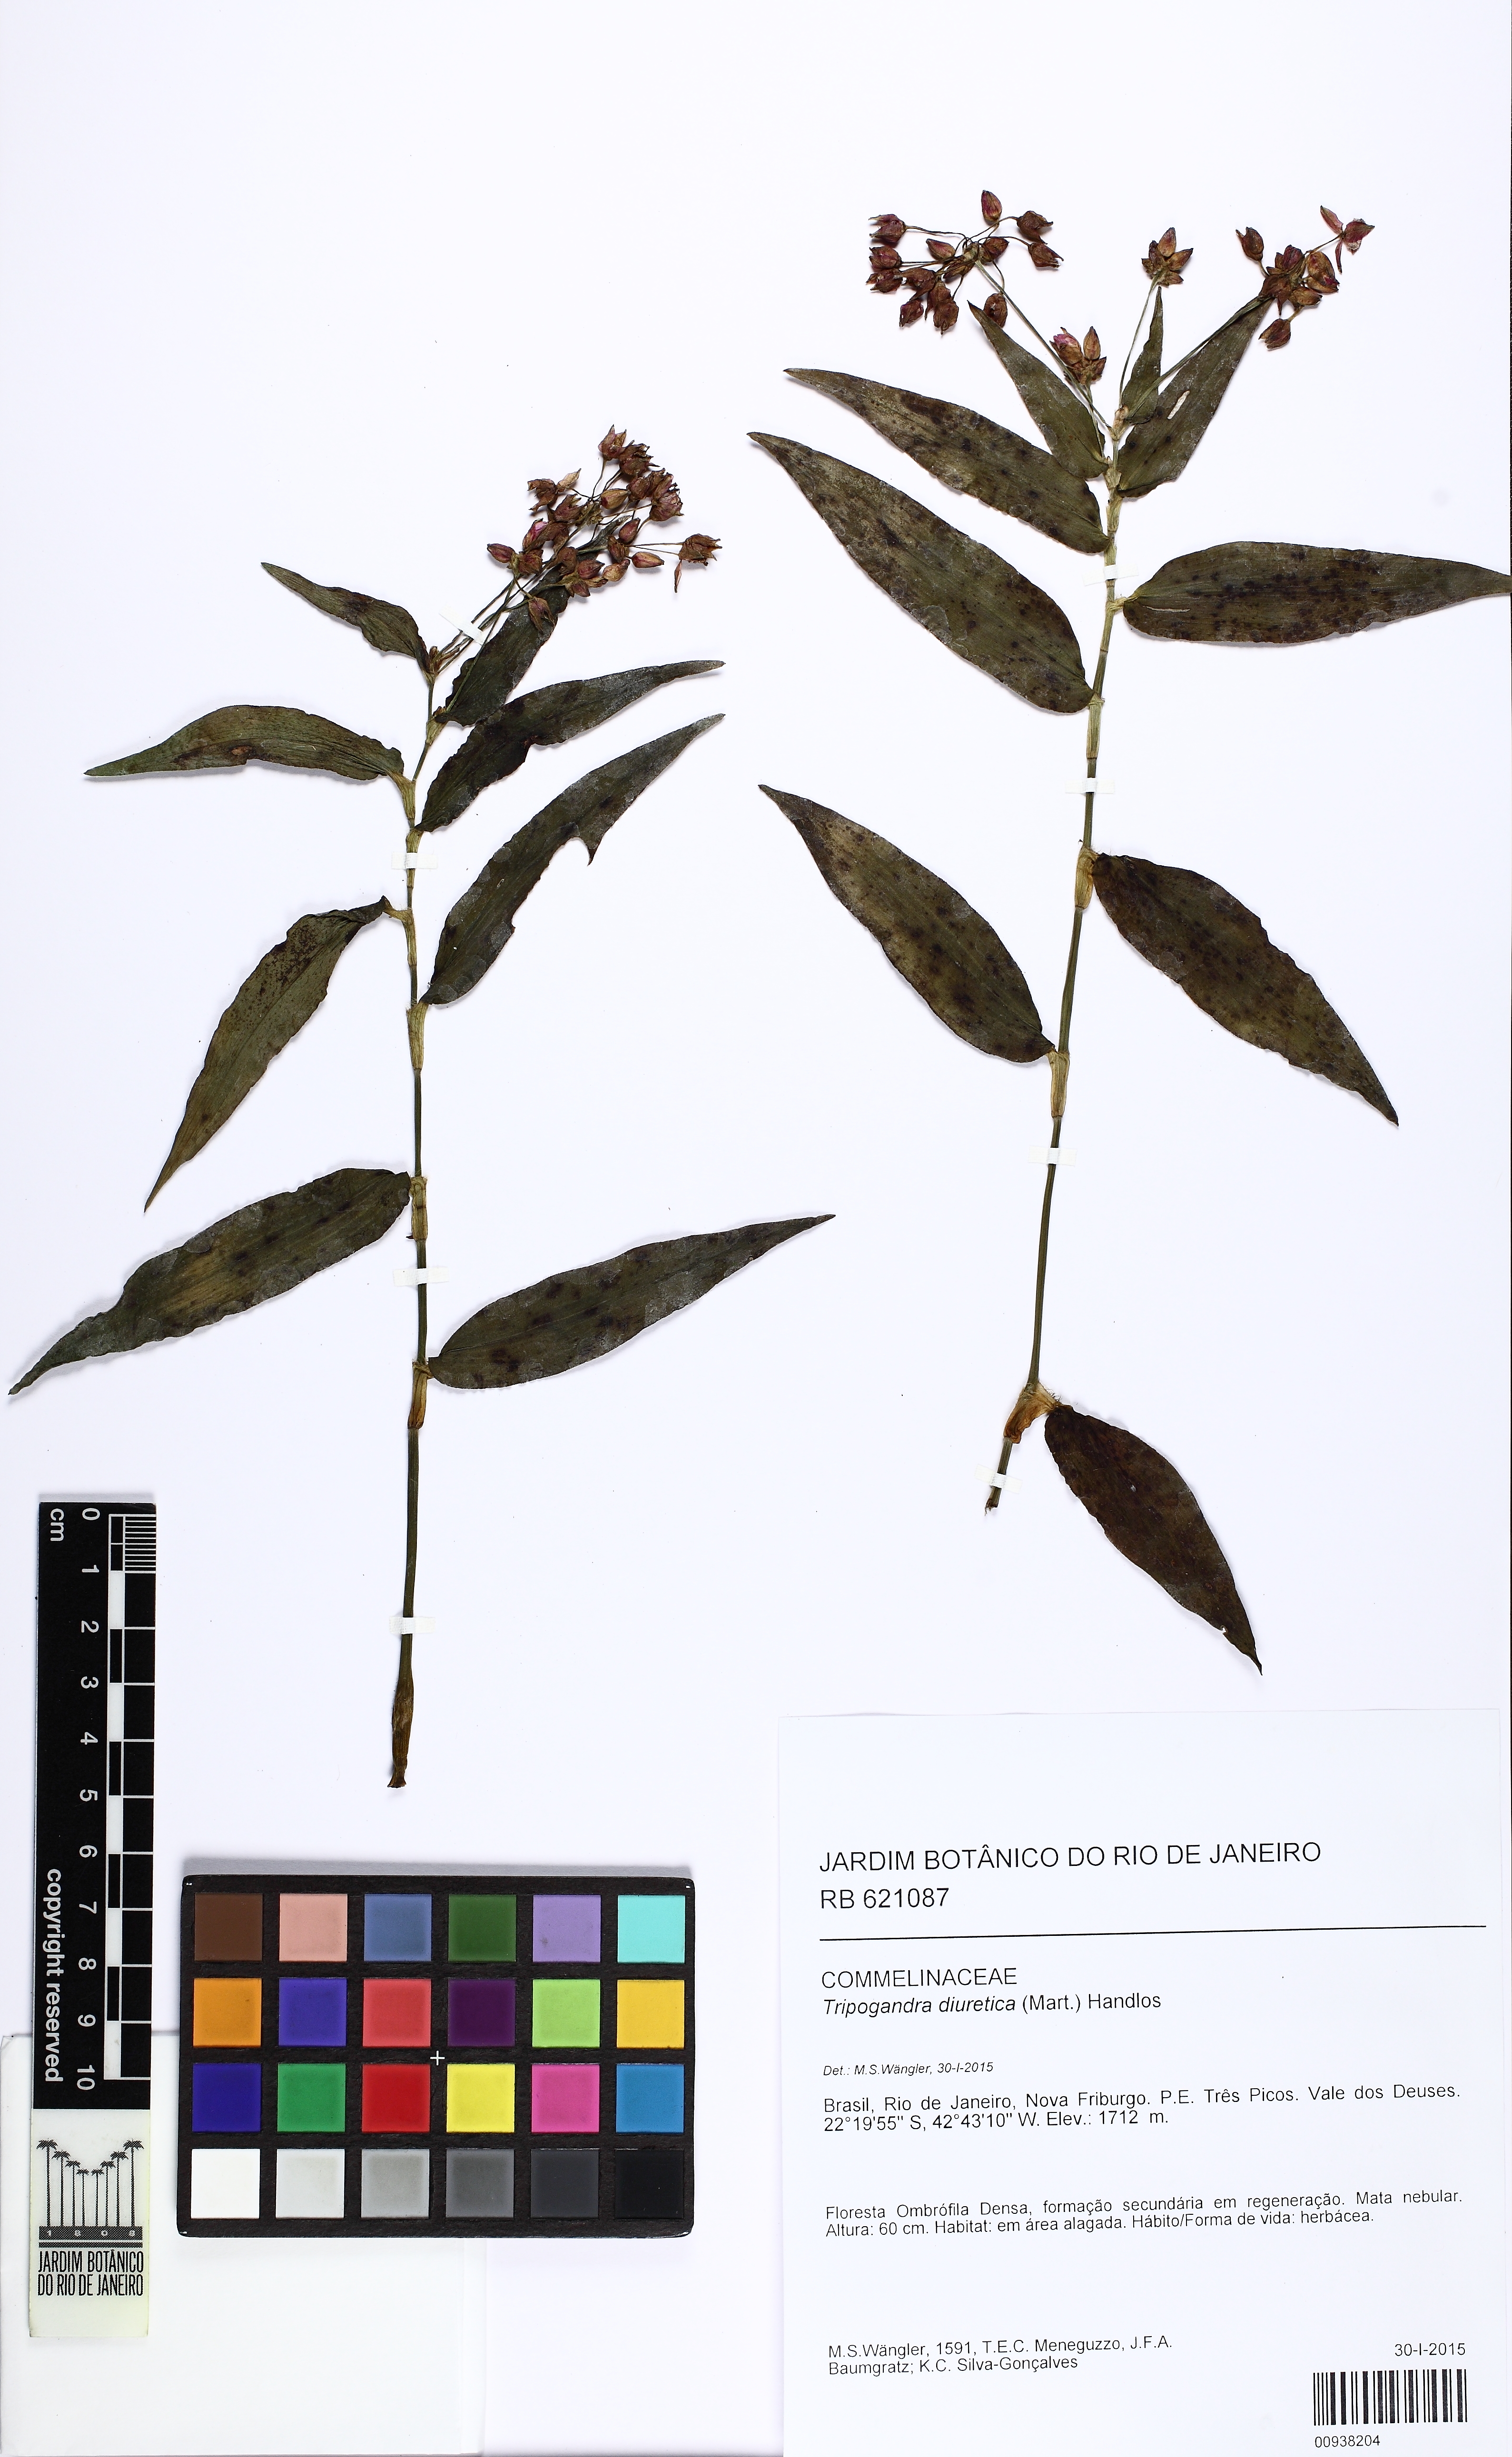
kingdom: Plantae
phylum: Tracheophyta
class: Liliopsida
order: Commelinales
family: Commelinaceae
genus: Callisia
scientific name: Callisia diuretica
